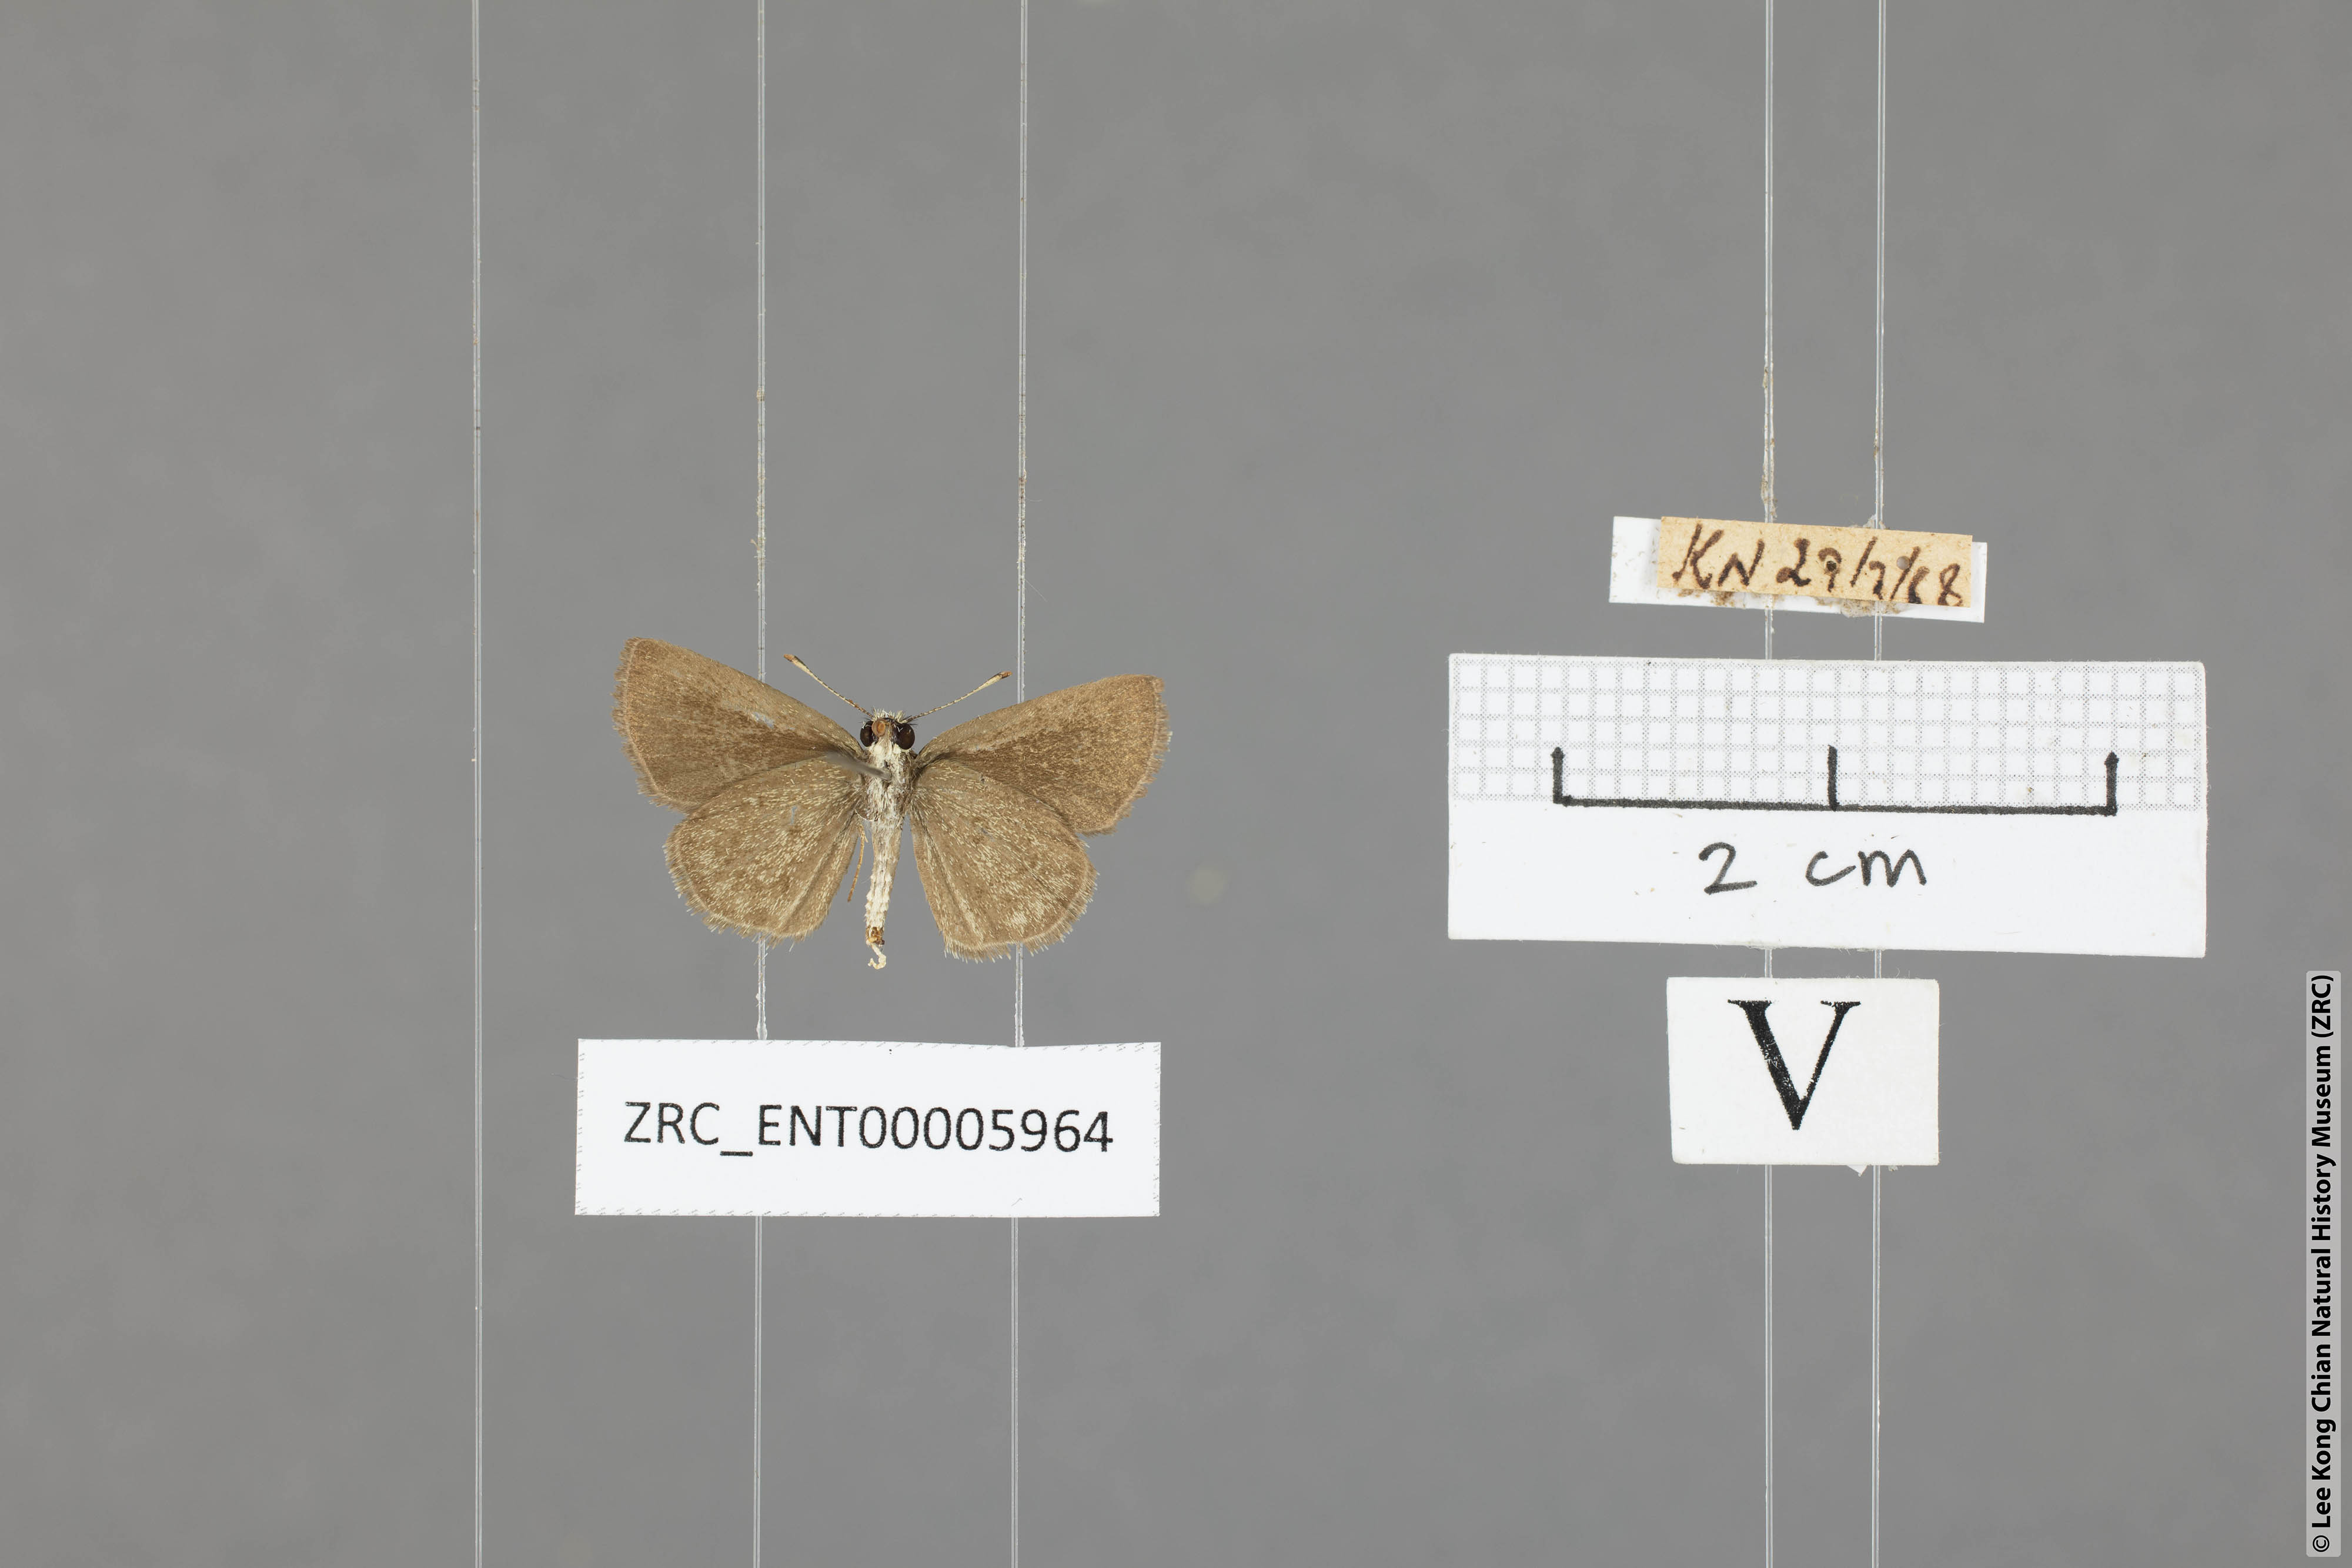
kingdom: Animalia
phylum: Arthropoda
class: Insecta
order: Lepidoptera
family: Hesperiidae
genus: Aeromachus
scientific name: Aeromachus pygmaeus
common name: Pygmy scrub hopper
